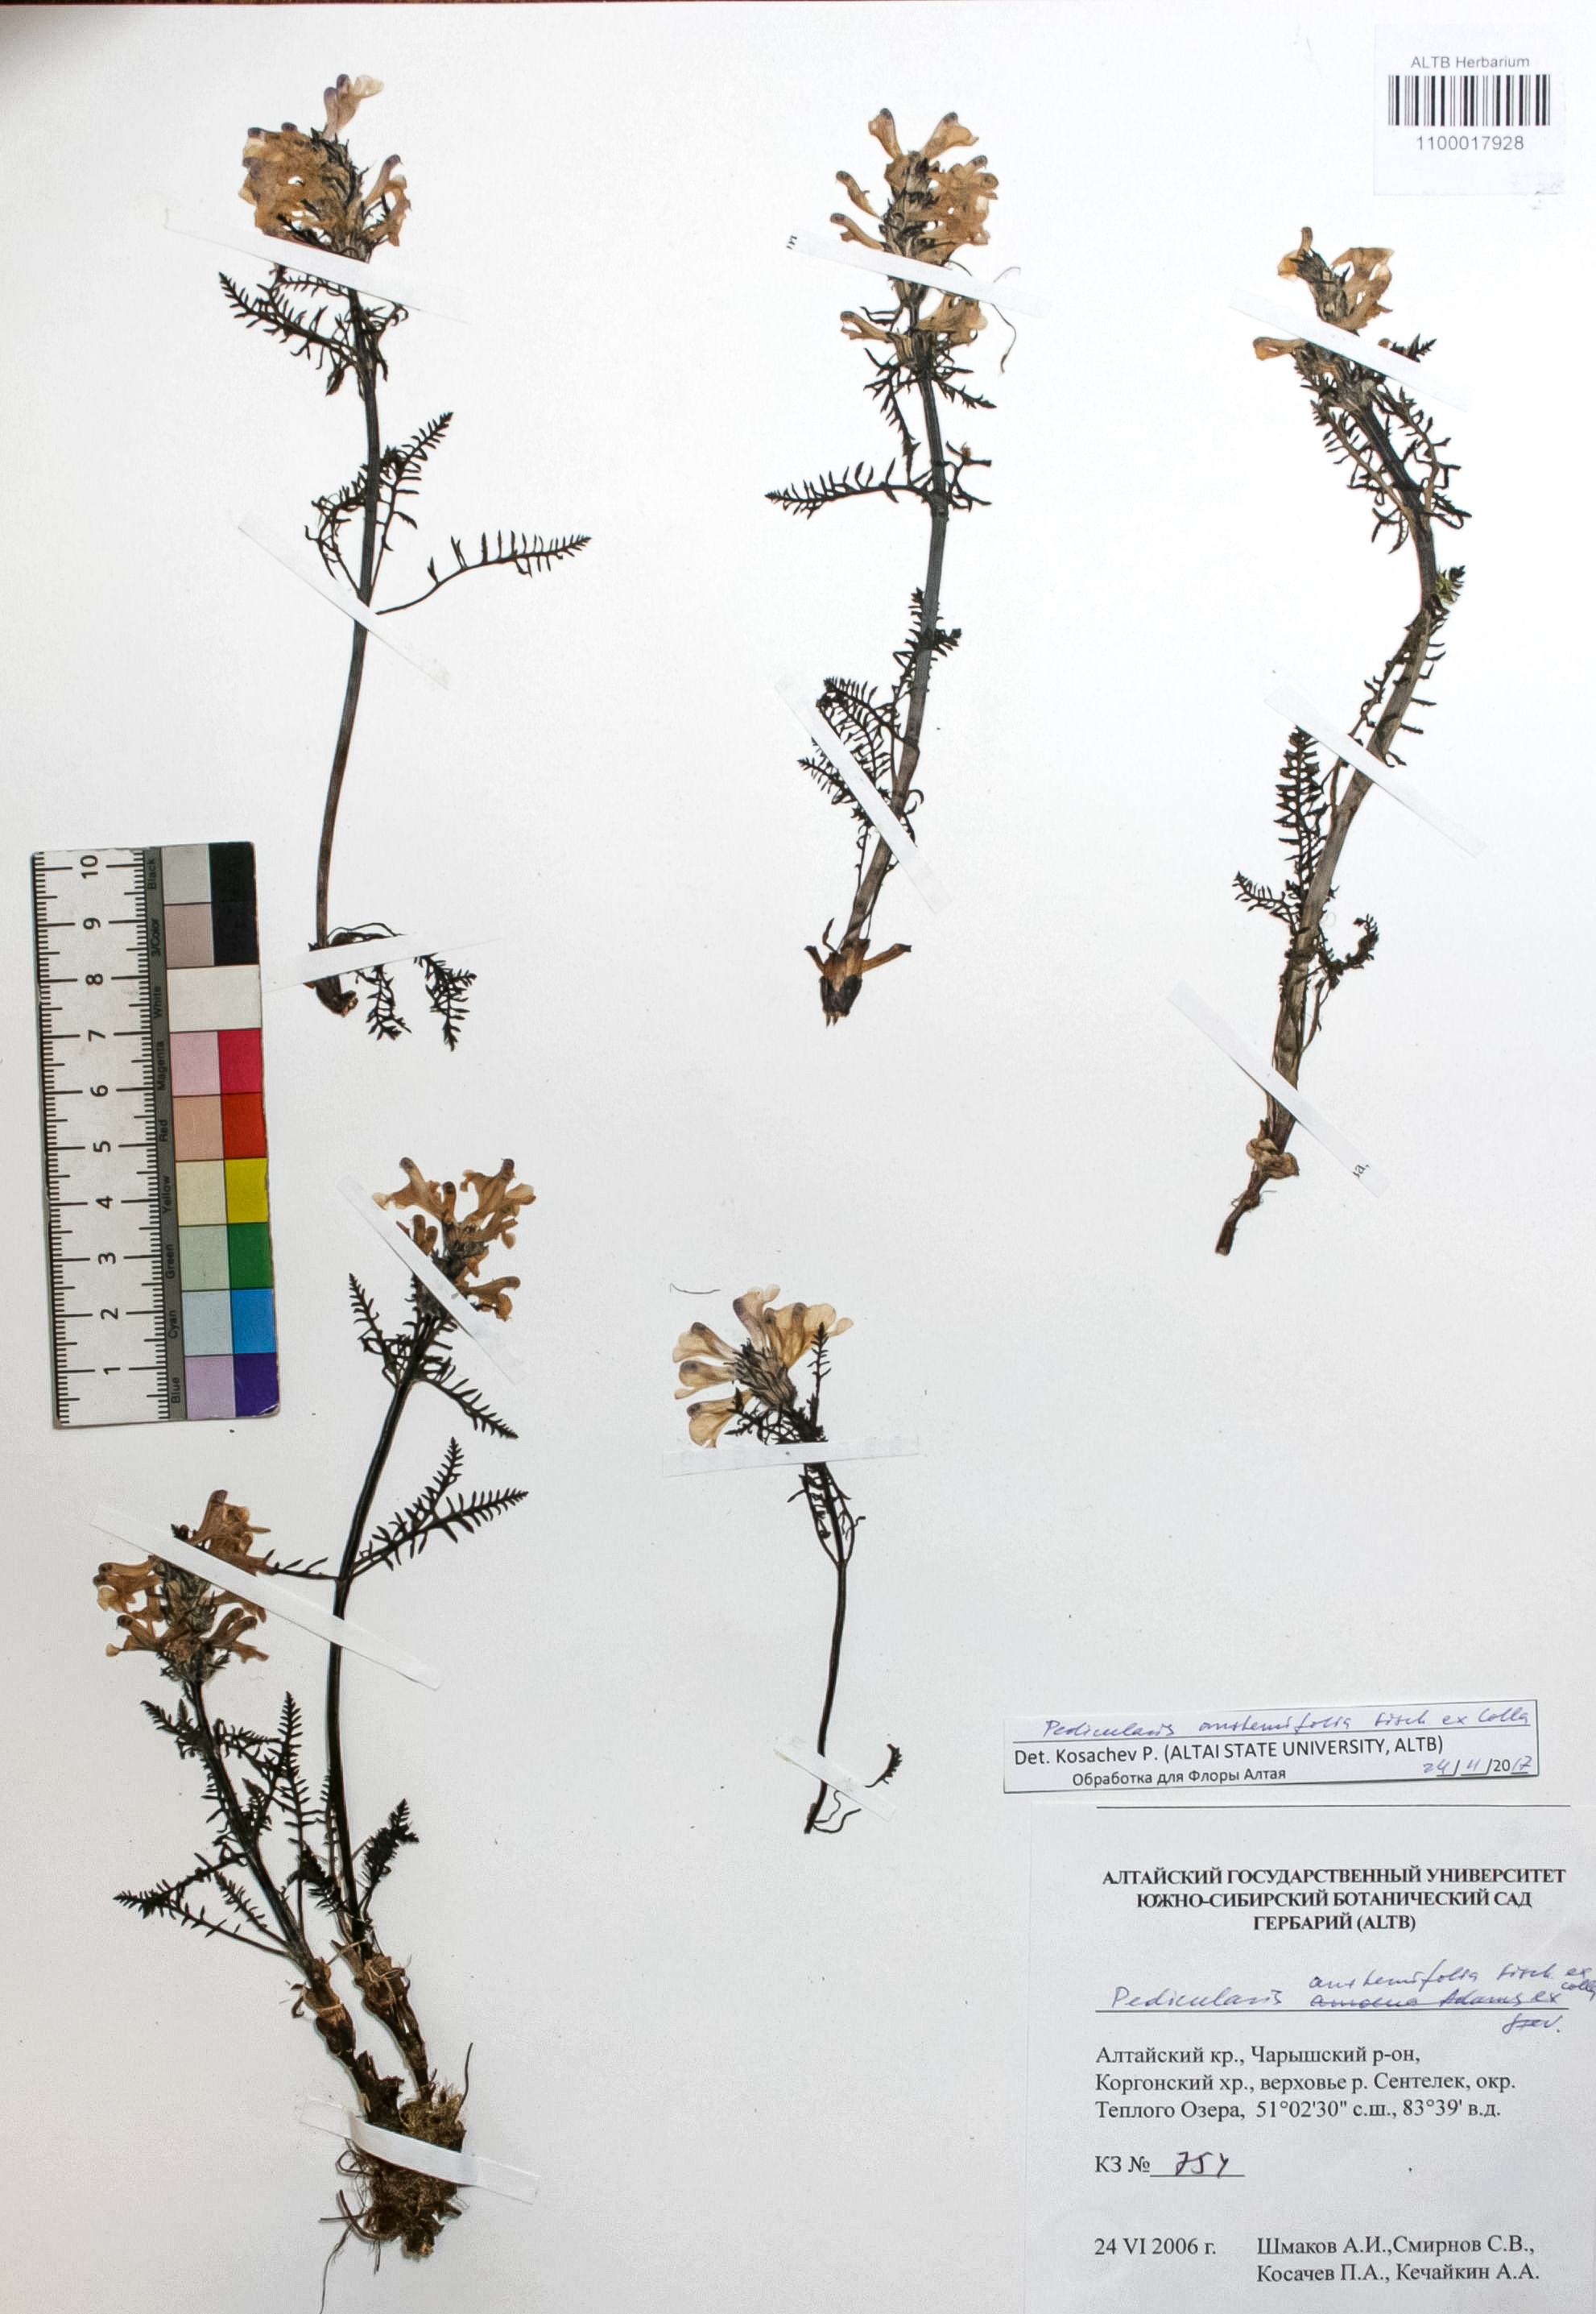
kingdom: Plantae
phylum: Tracheophyta
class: Magnoliopsida
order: Lamiales
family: Orobanchaceae
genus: Pedicularis
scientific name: Pedicularis anthemifolia
